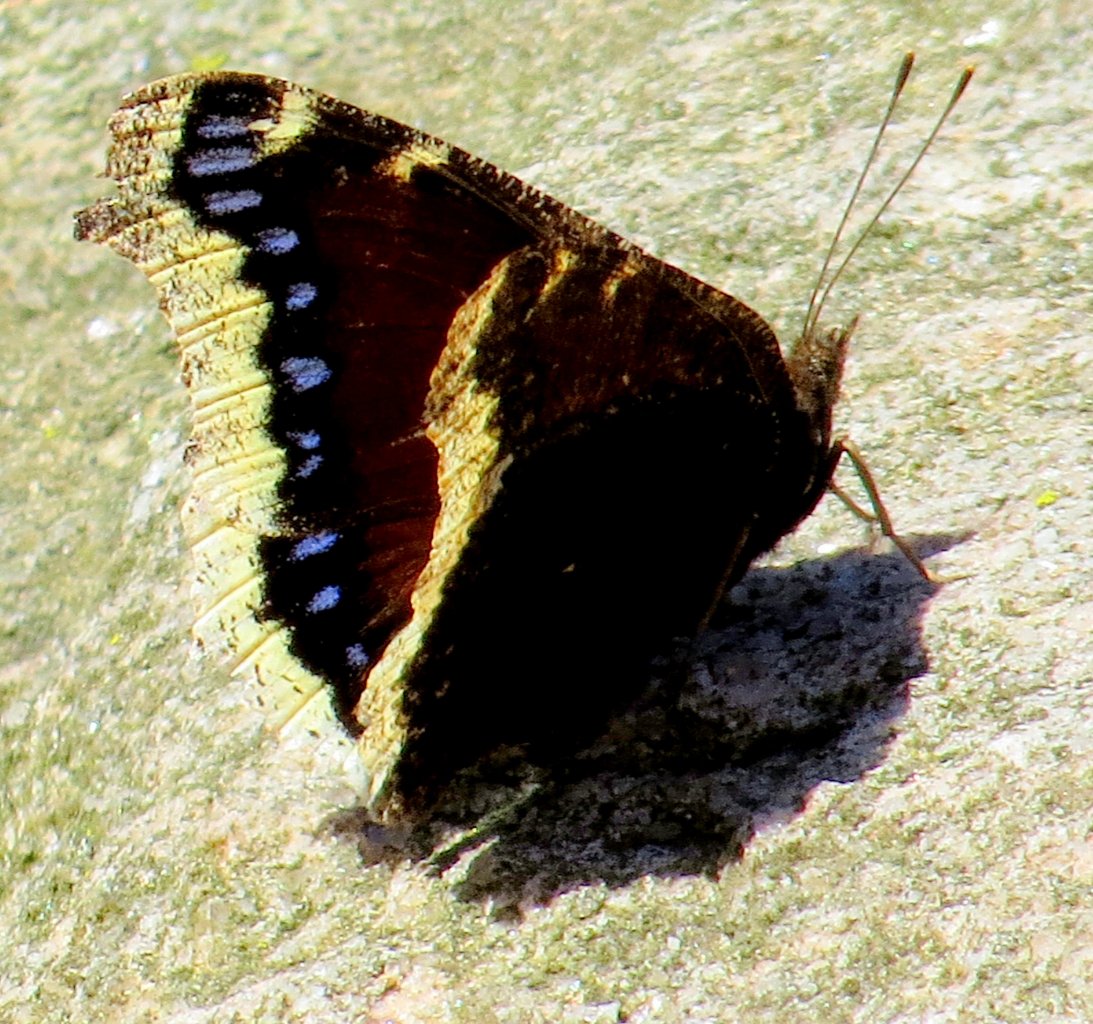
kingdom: Animalia
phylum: Arthropoda
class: Insecta
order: Lepidoptera
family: Nymphalidae
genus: Nymphalis
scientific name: Nymphalis antiopa
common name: Mourning Cloak
